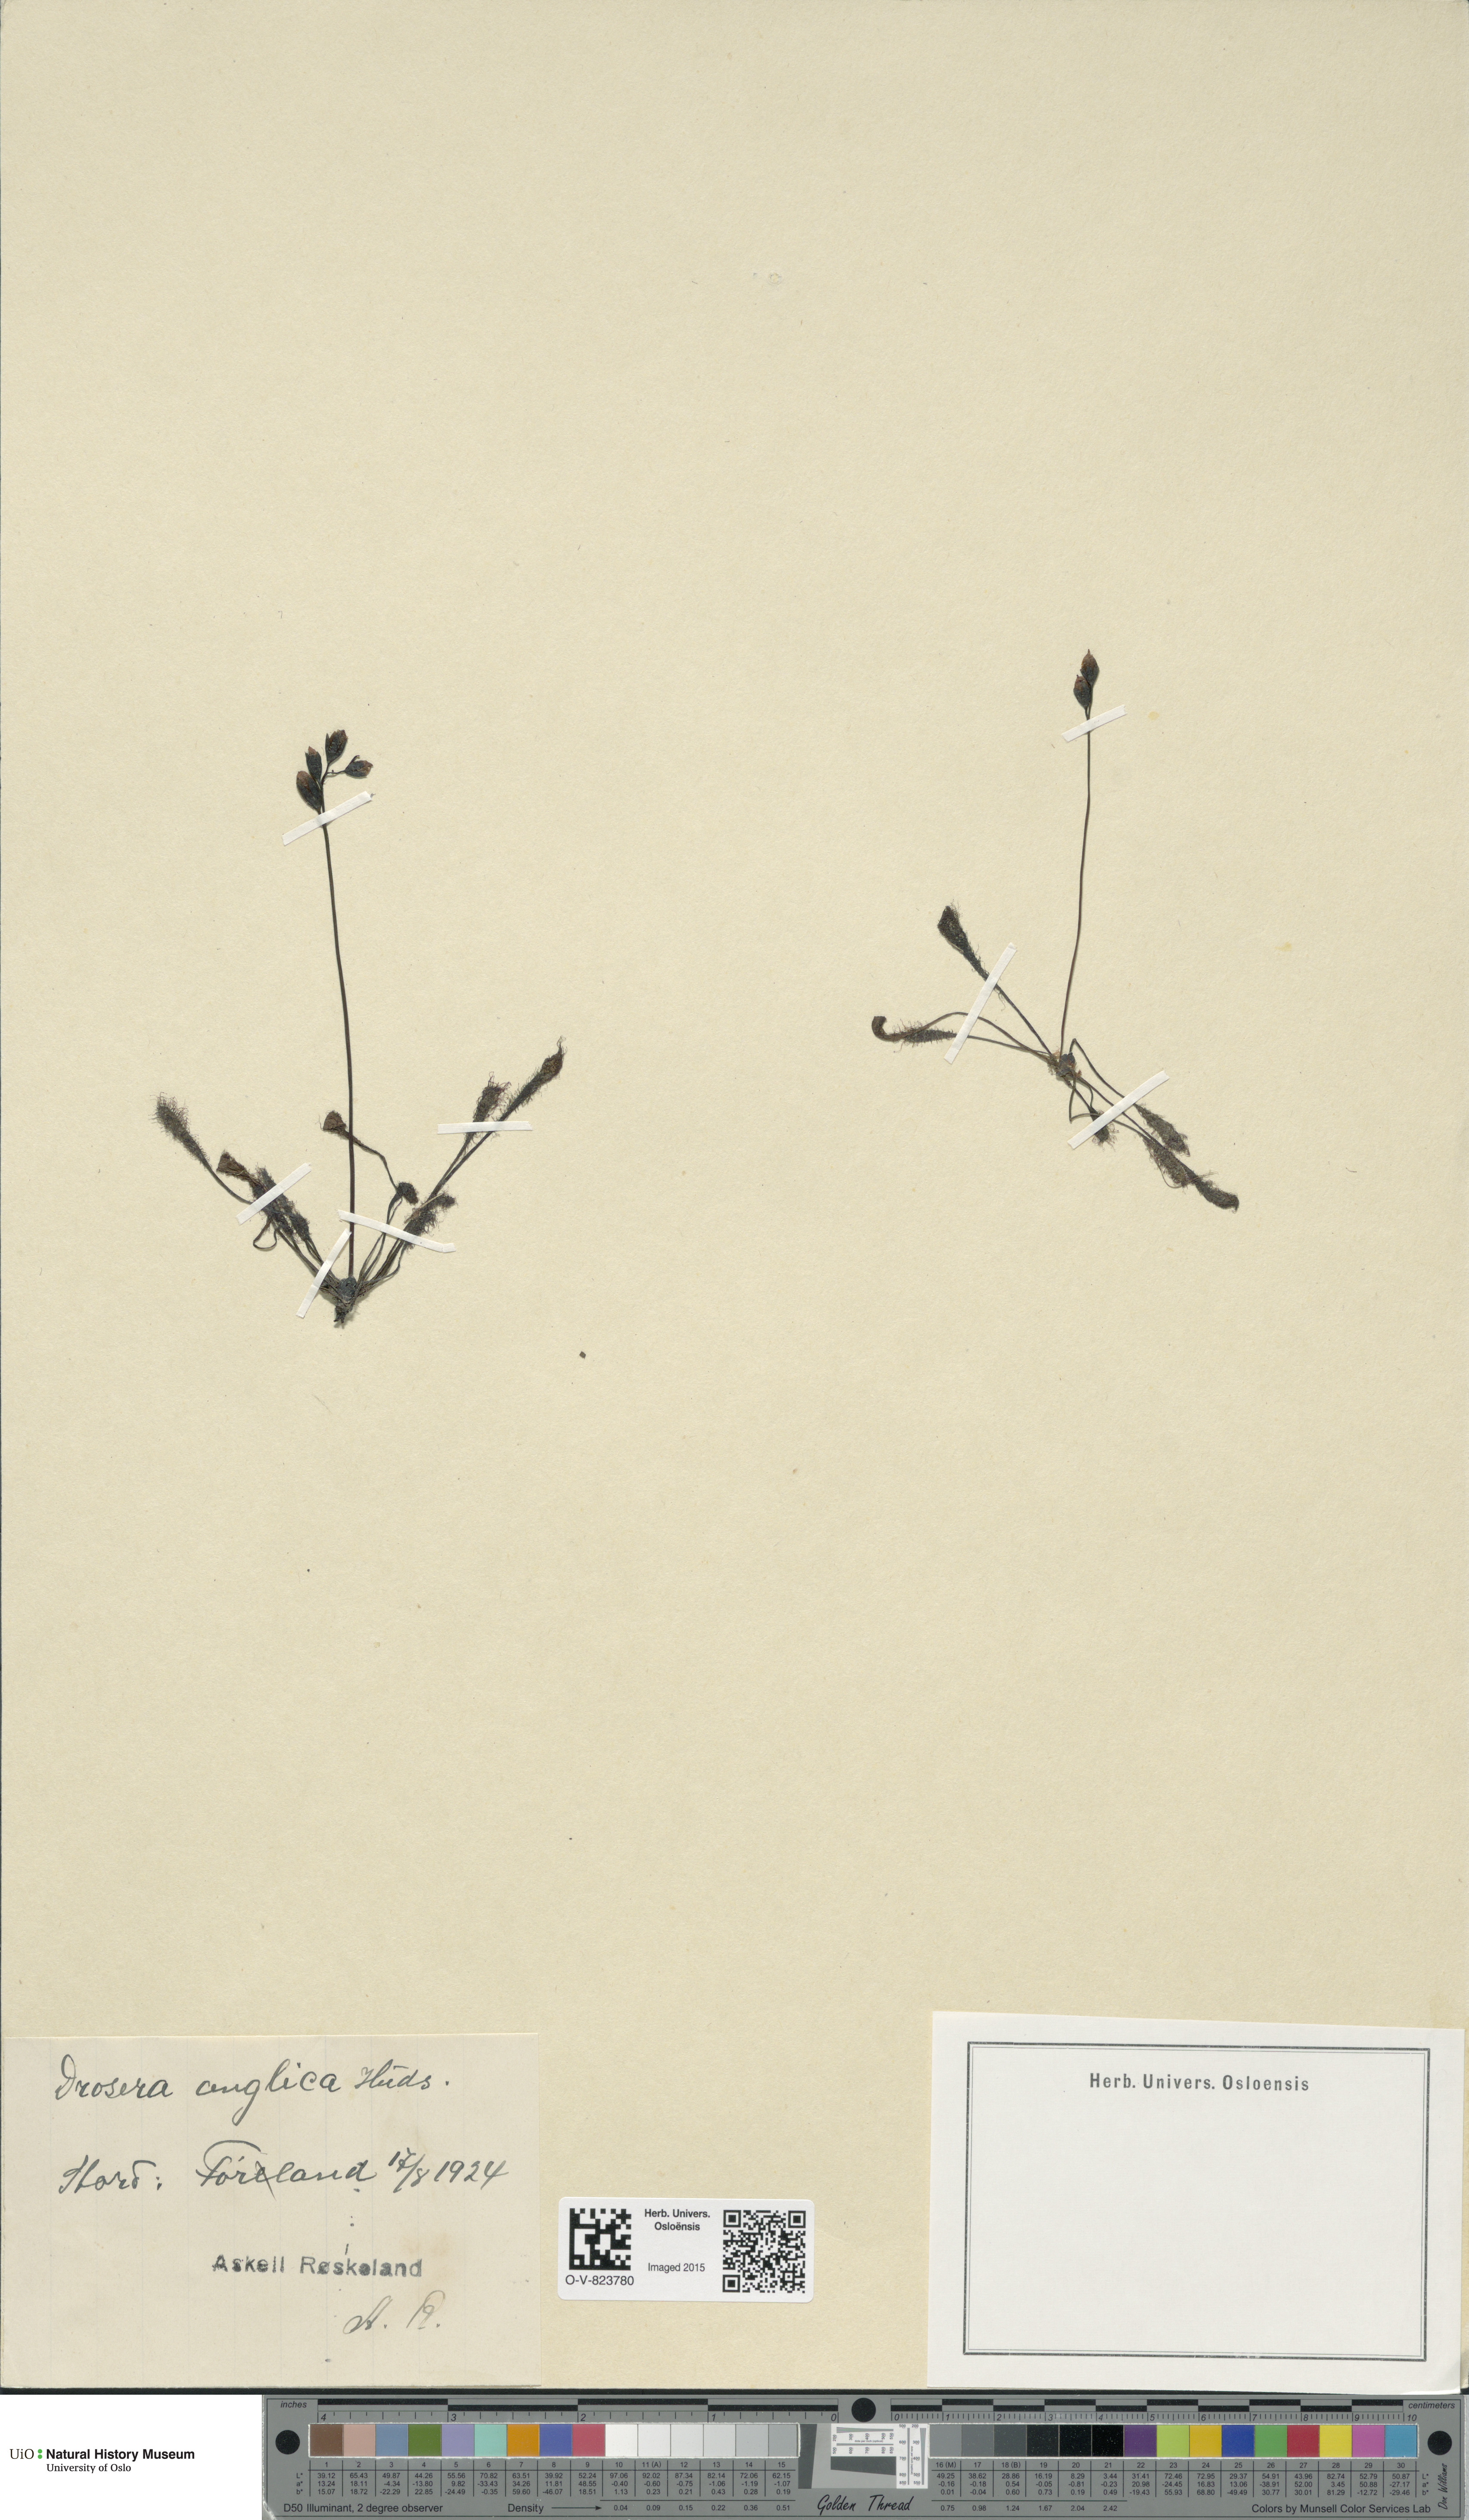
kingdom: Plantae
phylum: Tracheophyta
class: Magnoliopsida
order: Caryophyllales
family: Droseraceae
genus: Drosera
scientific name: Drosera anglica
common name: Great sundew
